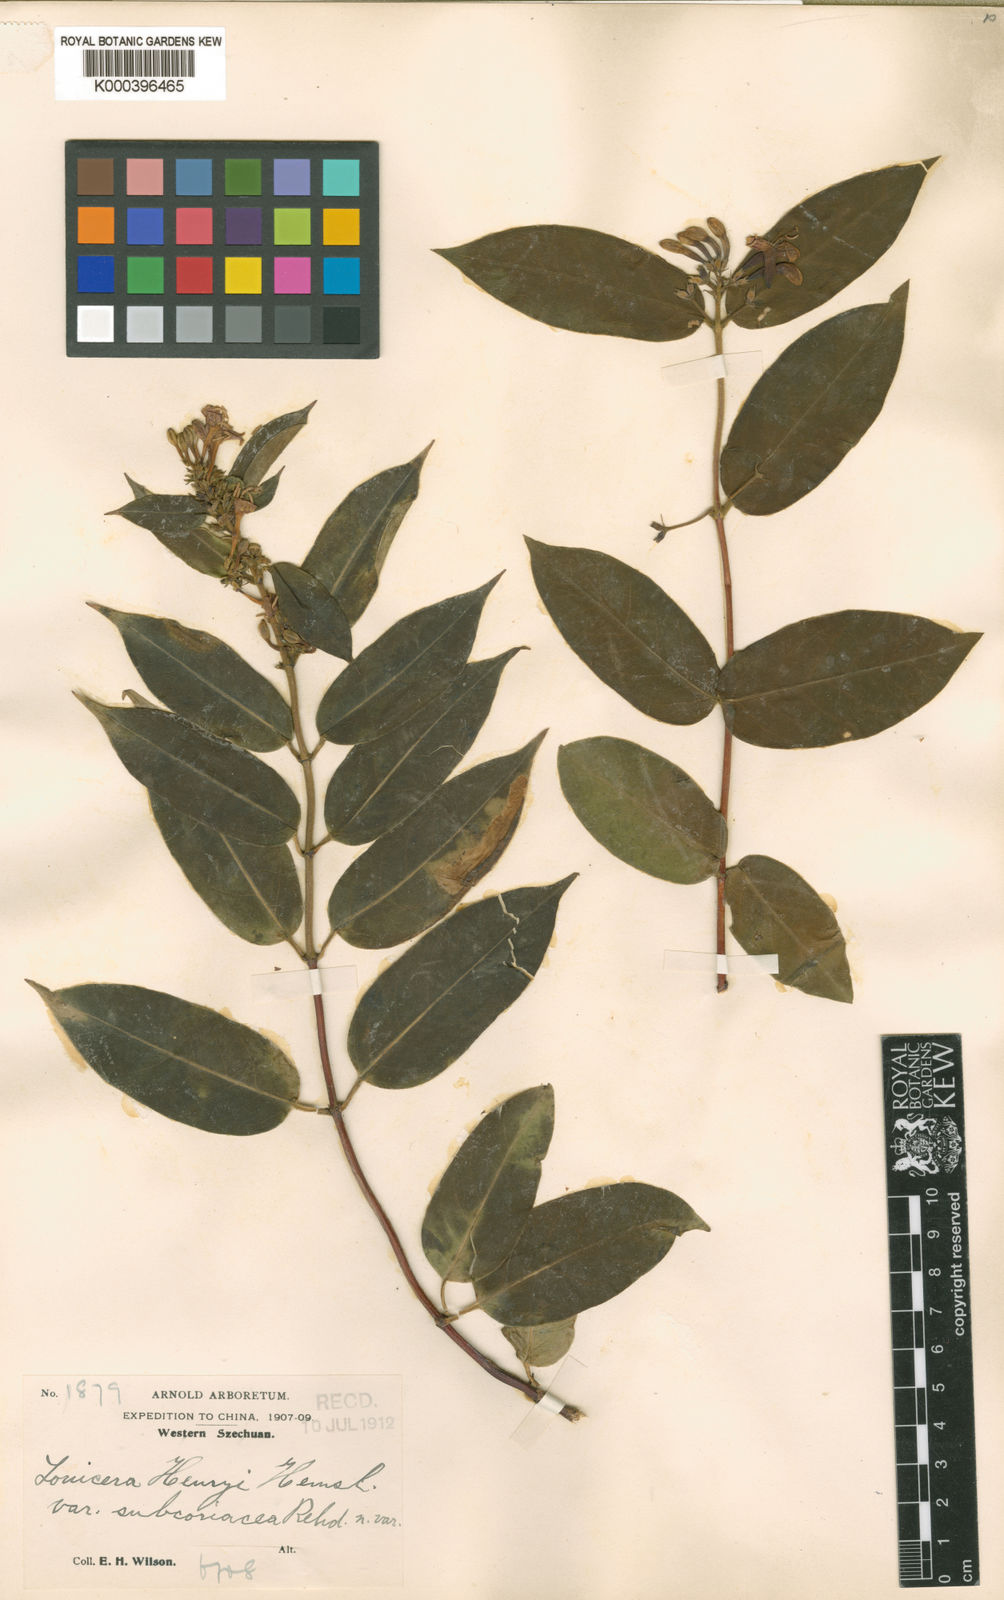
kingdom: Plantae
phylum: Tracheophyta
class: Magnoliopsida
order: Dipsacales
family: Caprifoliaceae
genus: Lonicera
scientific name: Lonicera acuminata
